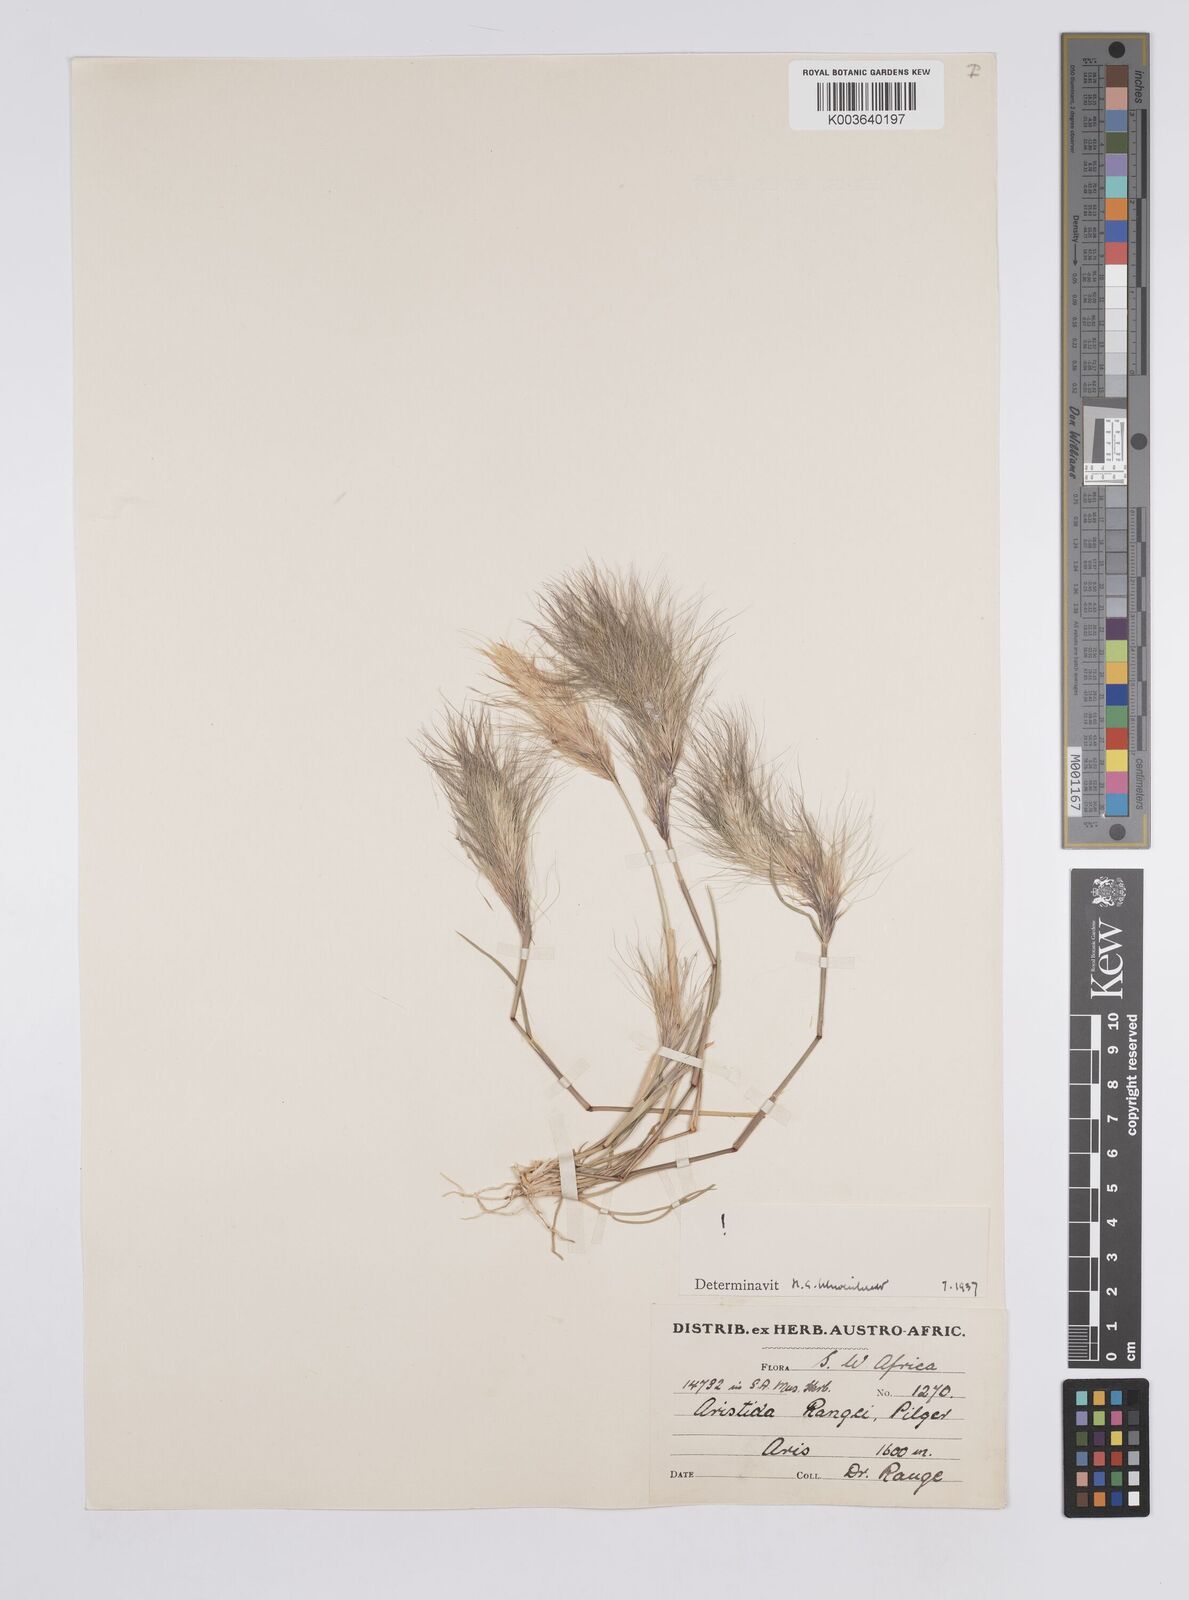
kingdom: Plantae
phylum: Tracheophyta
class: Liliopsida
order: Poales
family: Poaceae
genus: Aristida
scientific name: Aristida congesta
